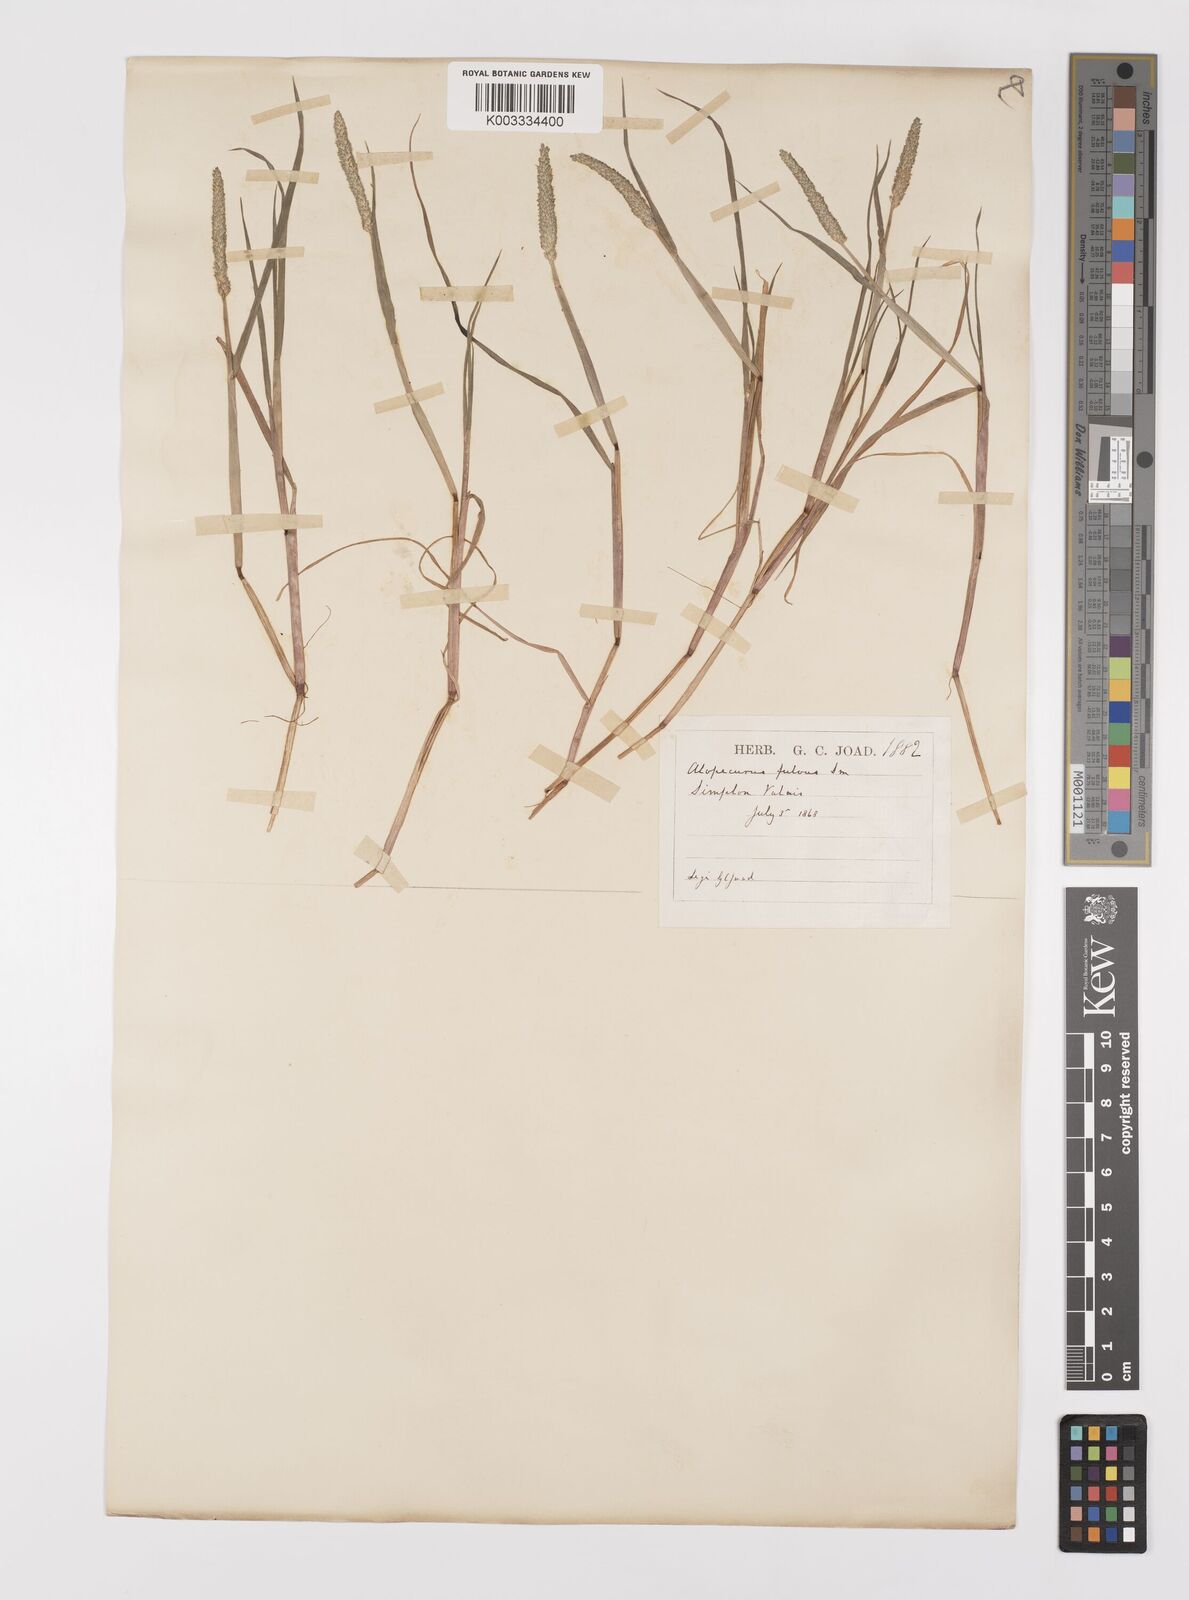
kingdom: Plantae
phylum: Tracheophyta
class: Liliopsida
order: Poales
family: Poaceae
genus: Alopecurus
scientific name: Alopecurus aequalis
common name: Orange foxtail
